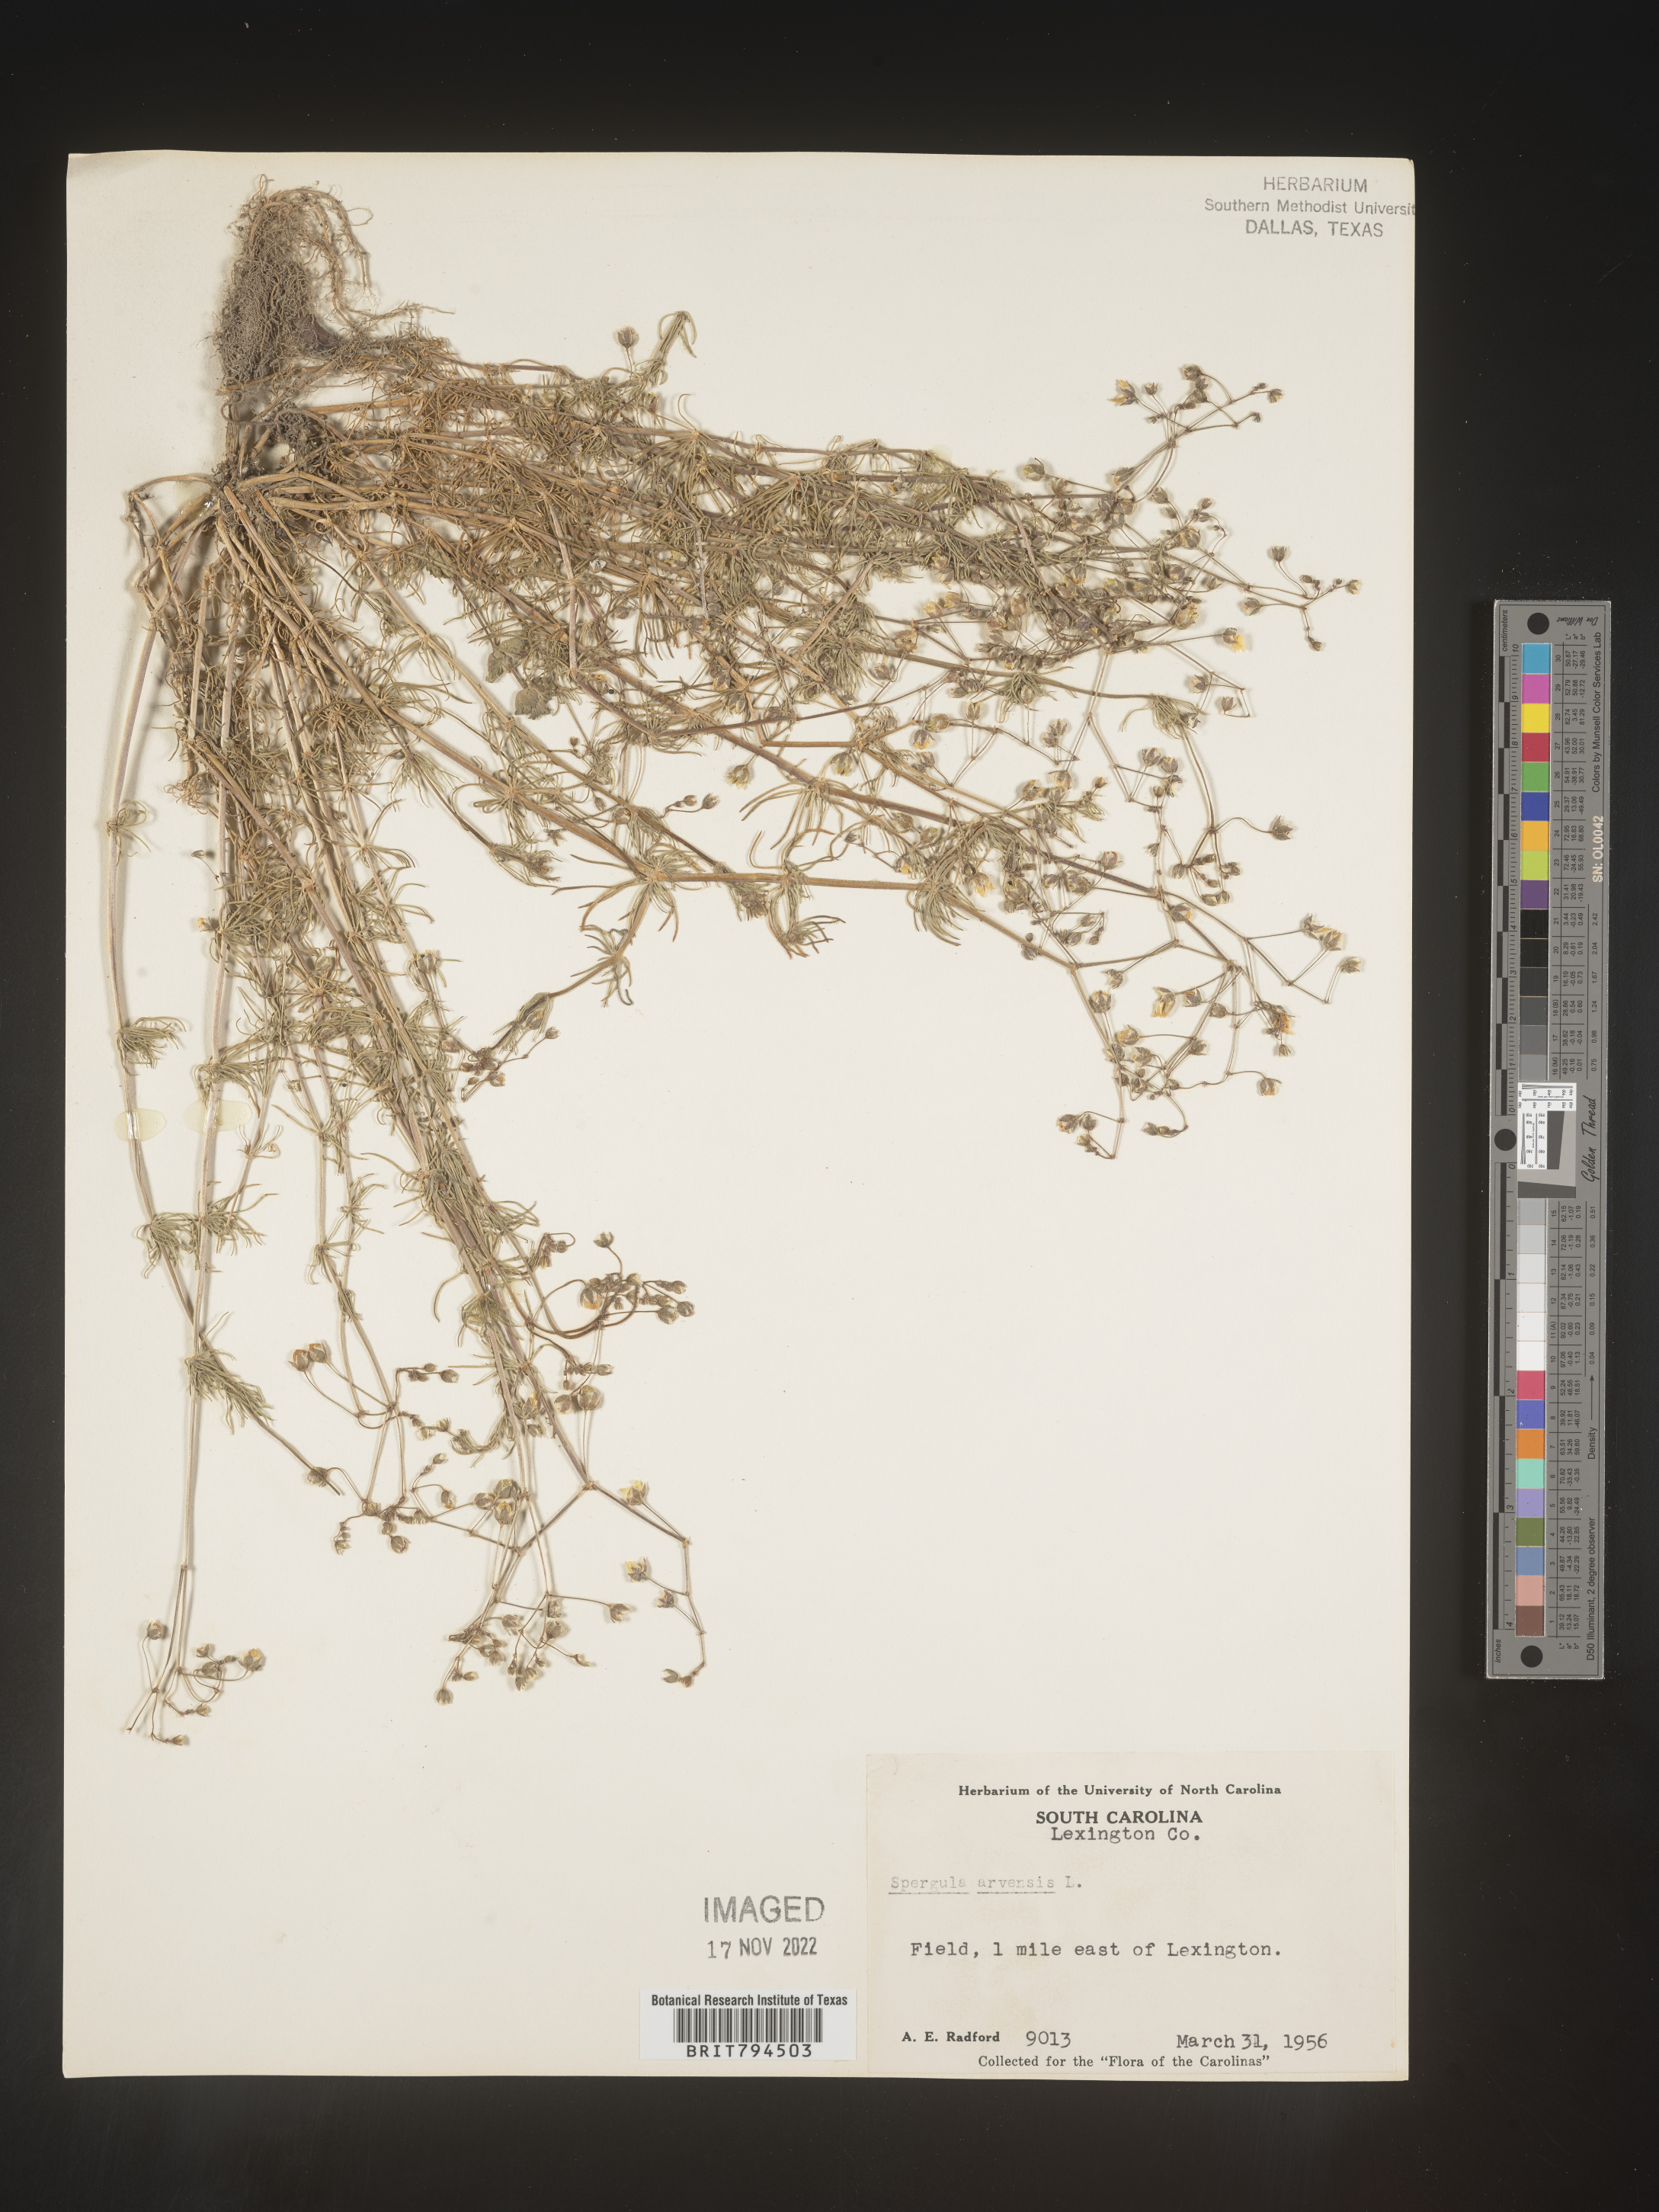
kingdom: Plantae
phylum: Tracheophyta
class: Magnoliopsida
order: Caryophyllales
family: Caryophyllaceae
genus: Spergula
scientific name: Spergula arvensis
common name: Corn spurrey
